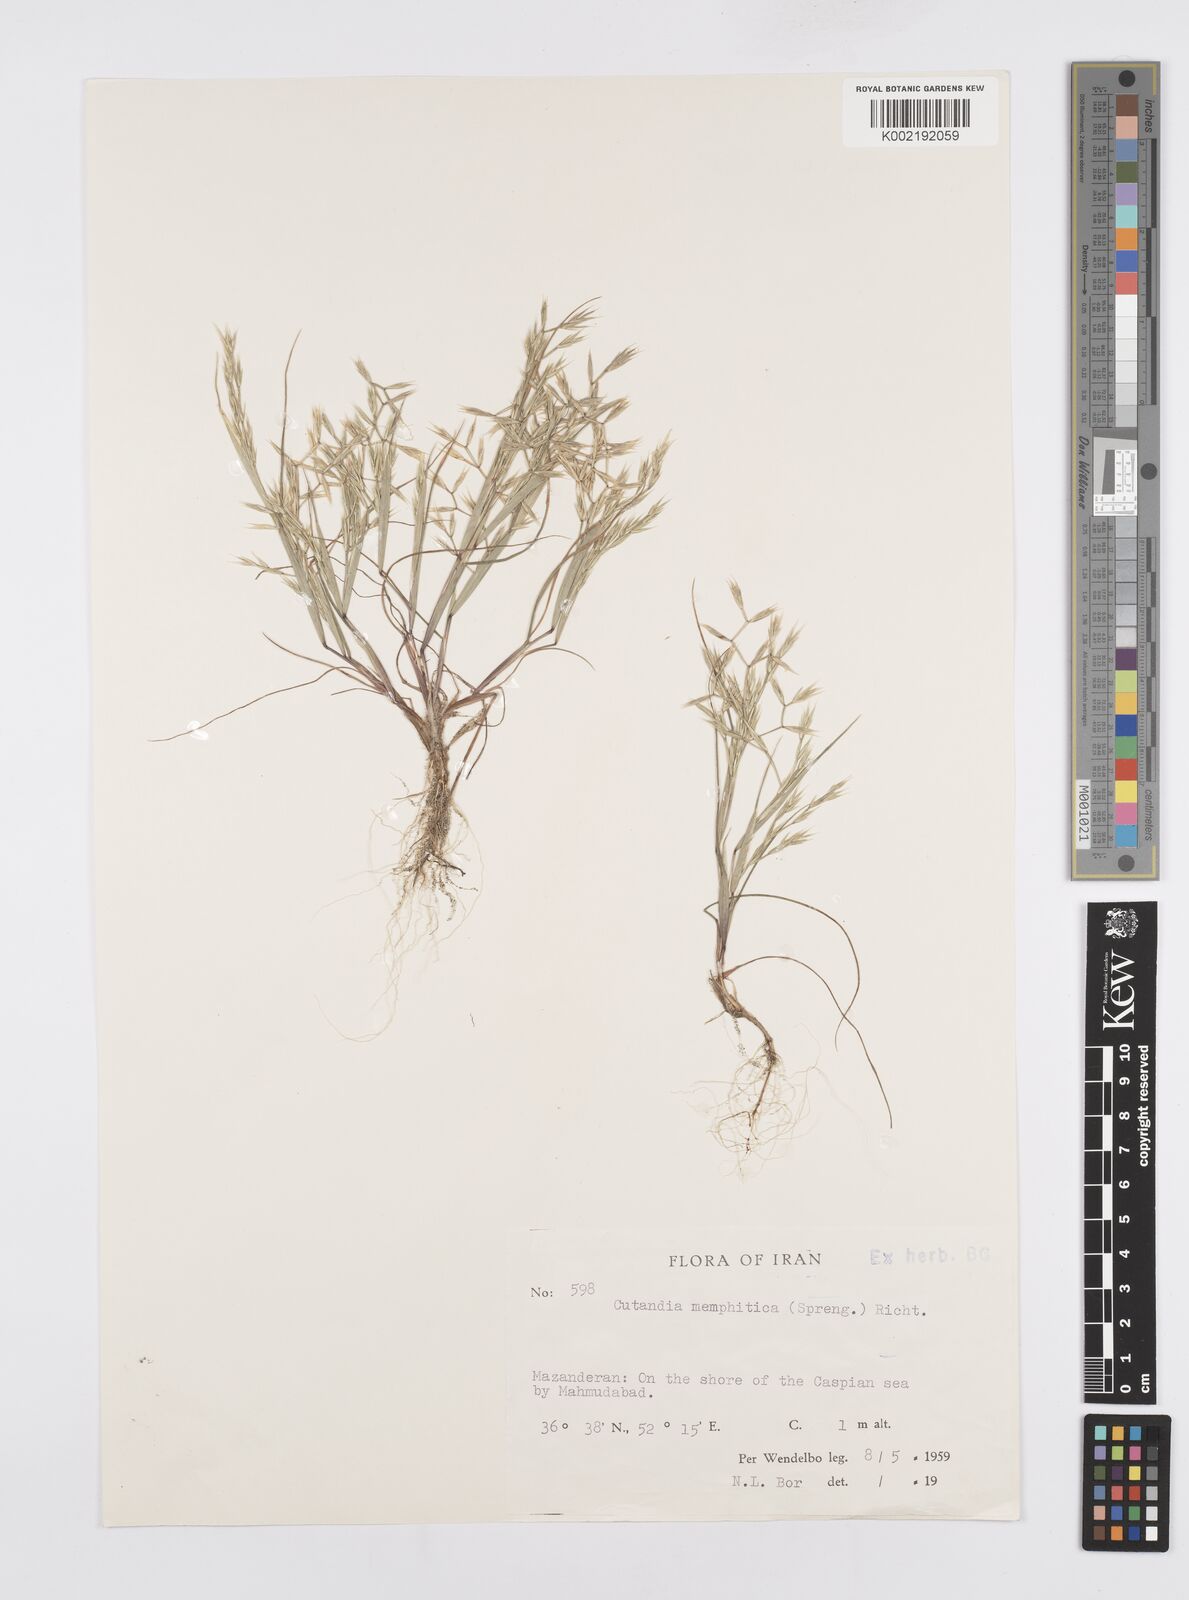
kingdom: Plantae
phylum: Tracheophyta
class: Liliopsida
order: Poales
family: Poaceae
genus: Cutandia
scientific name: Cutandia memphitica
